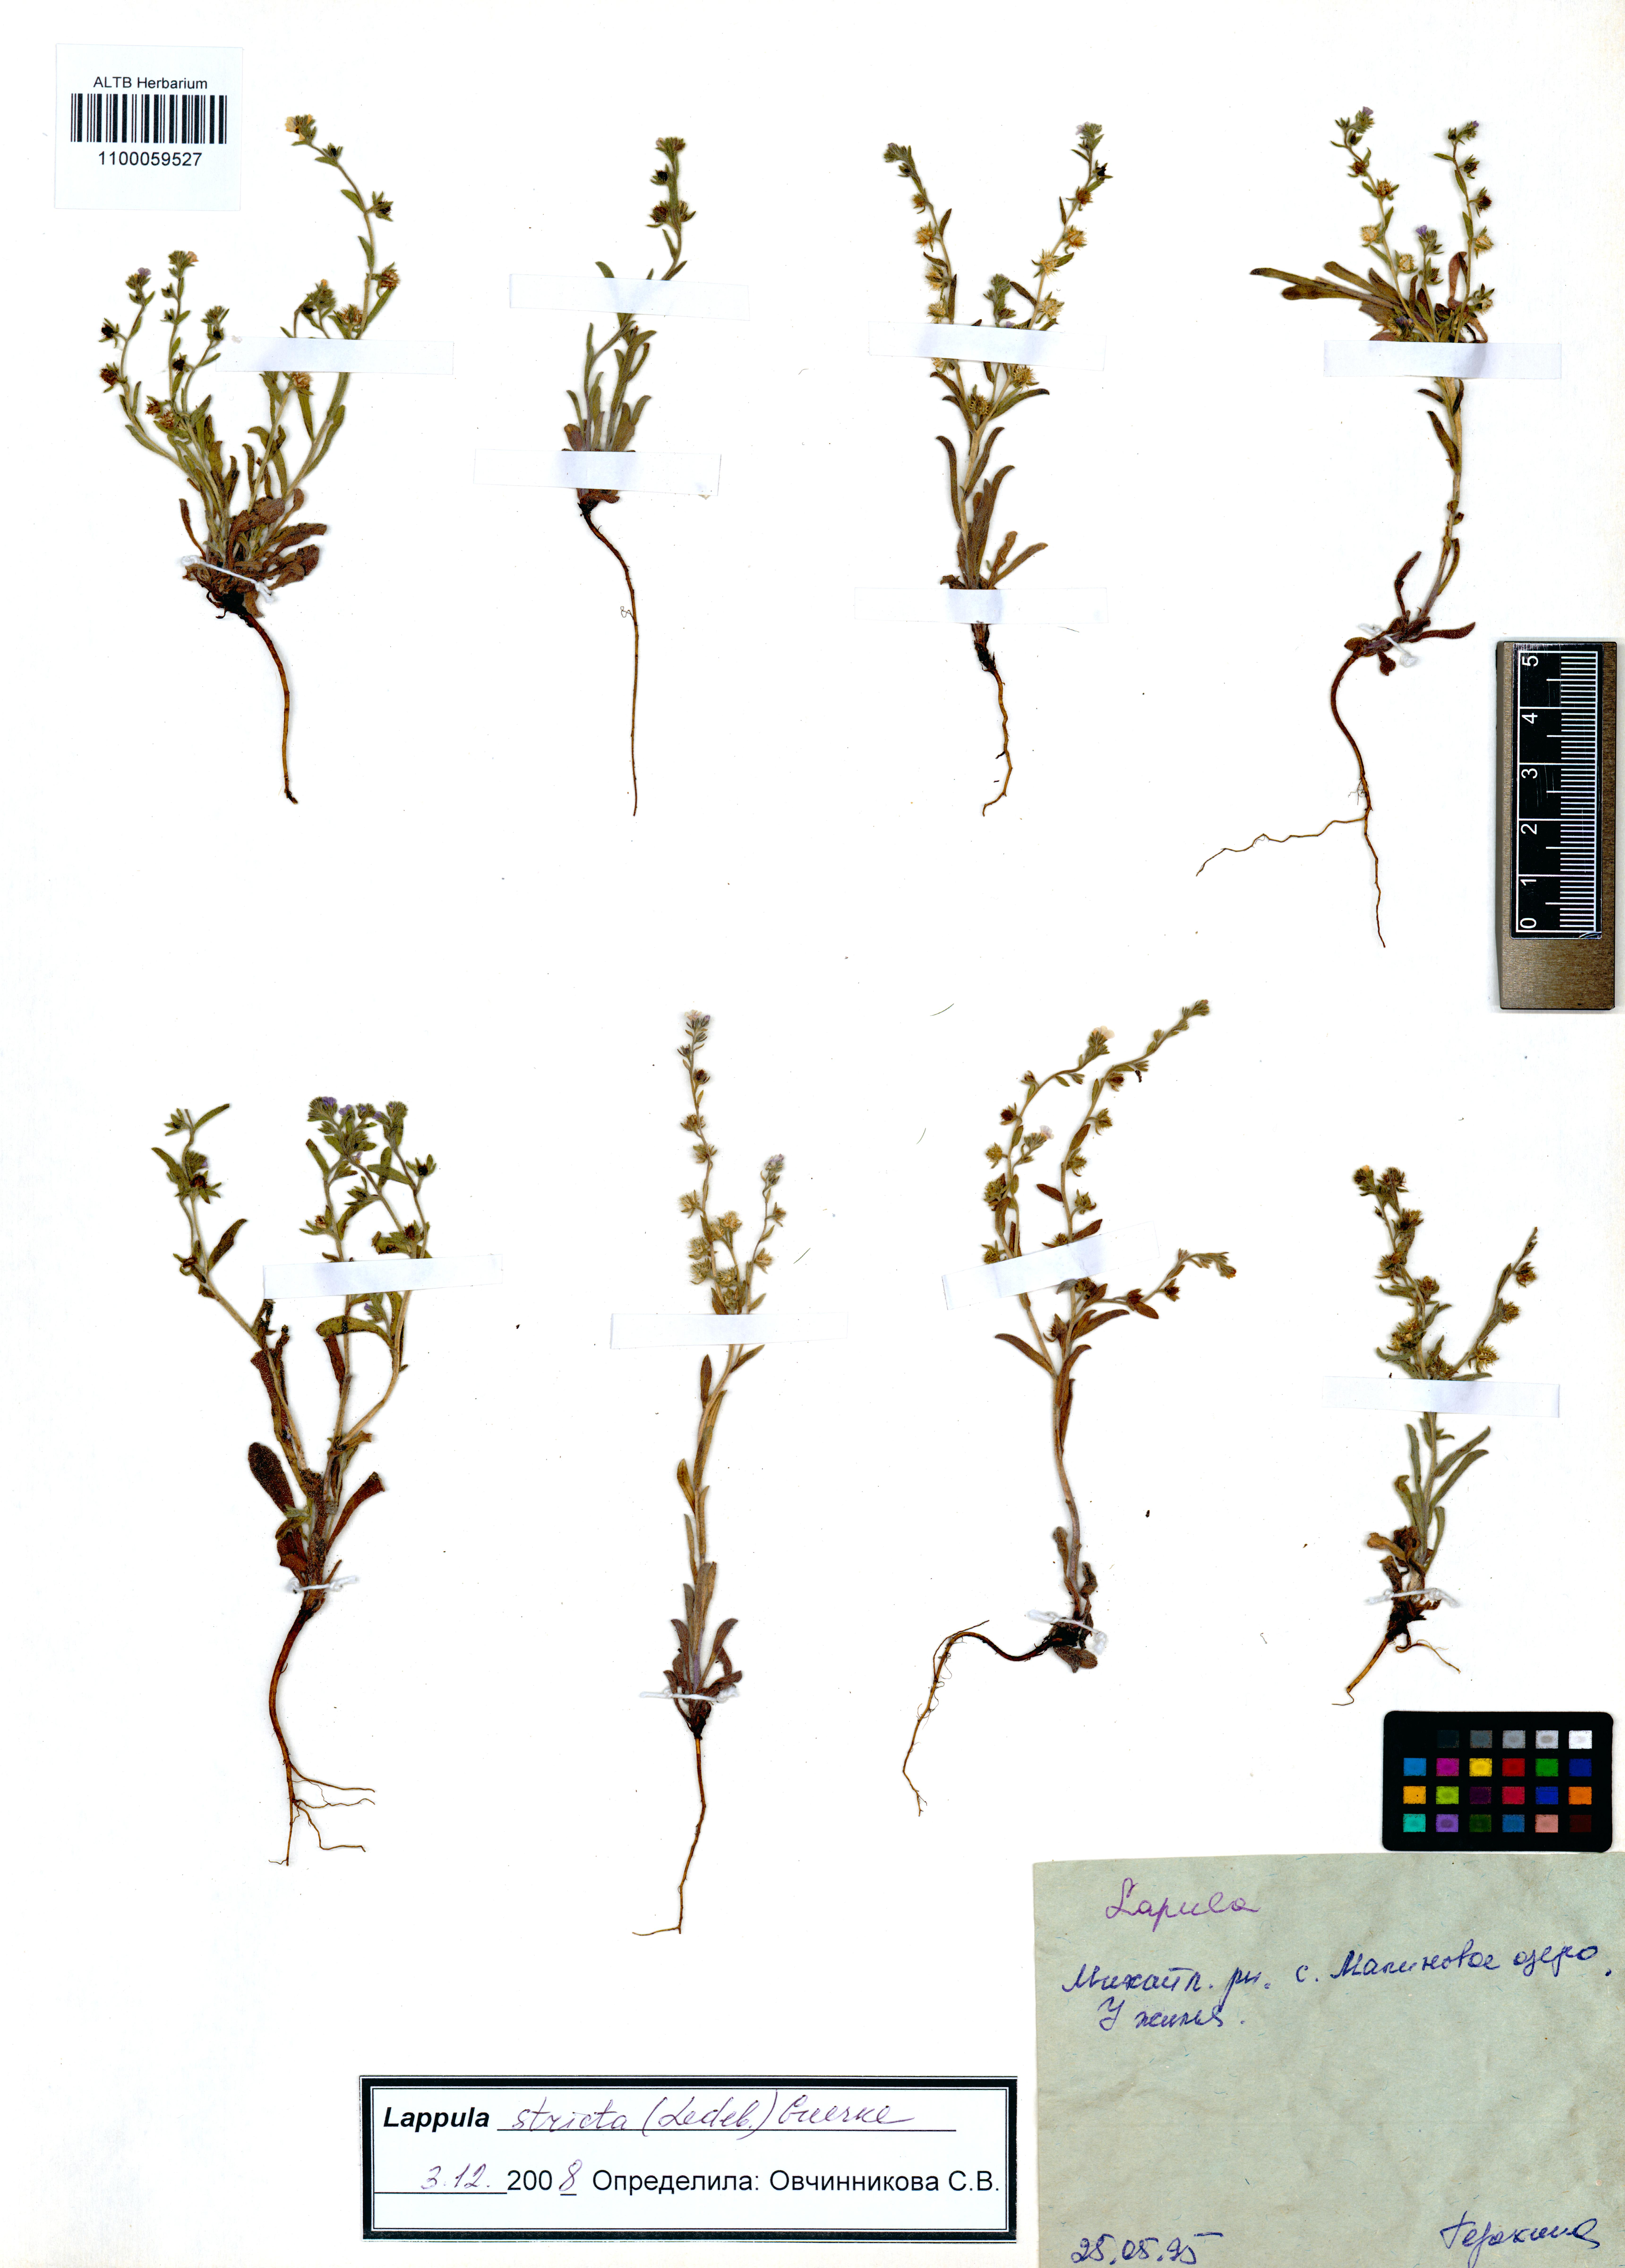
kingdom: Plantae
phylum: Tracheophyta
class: Magnoliopsida
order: Boraginales
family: Boraginaceae
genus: Lappula
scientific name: Lappula stricta
